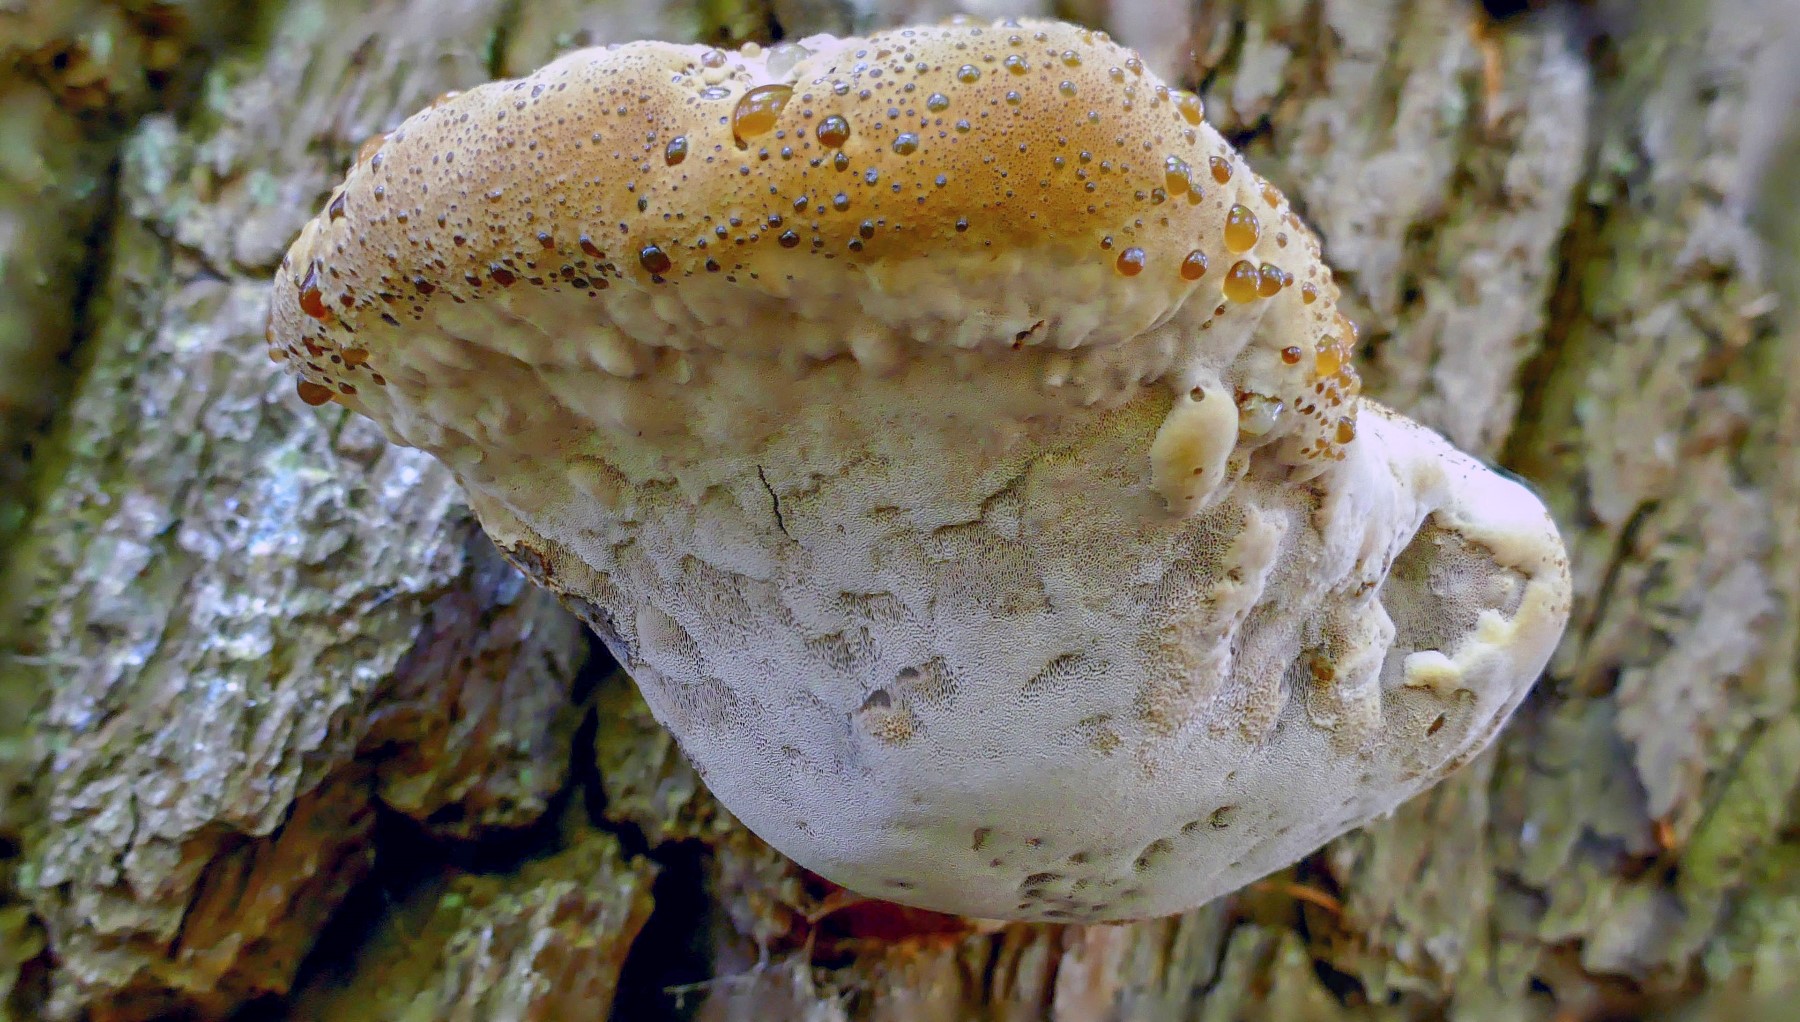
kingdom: Fungi
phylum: Basidiomycota
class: Agaricomycetes
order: Hymenochaetales
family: Hymenochaetaceae
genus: Pseudoinonotus
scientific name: Pseudoinonotus dryadeus
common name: ege-spejlporesvamp
